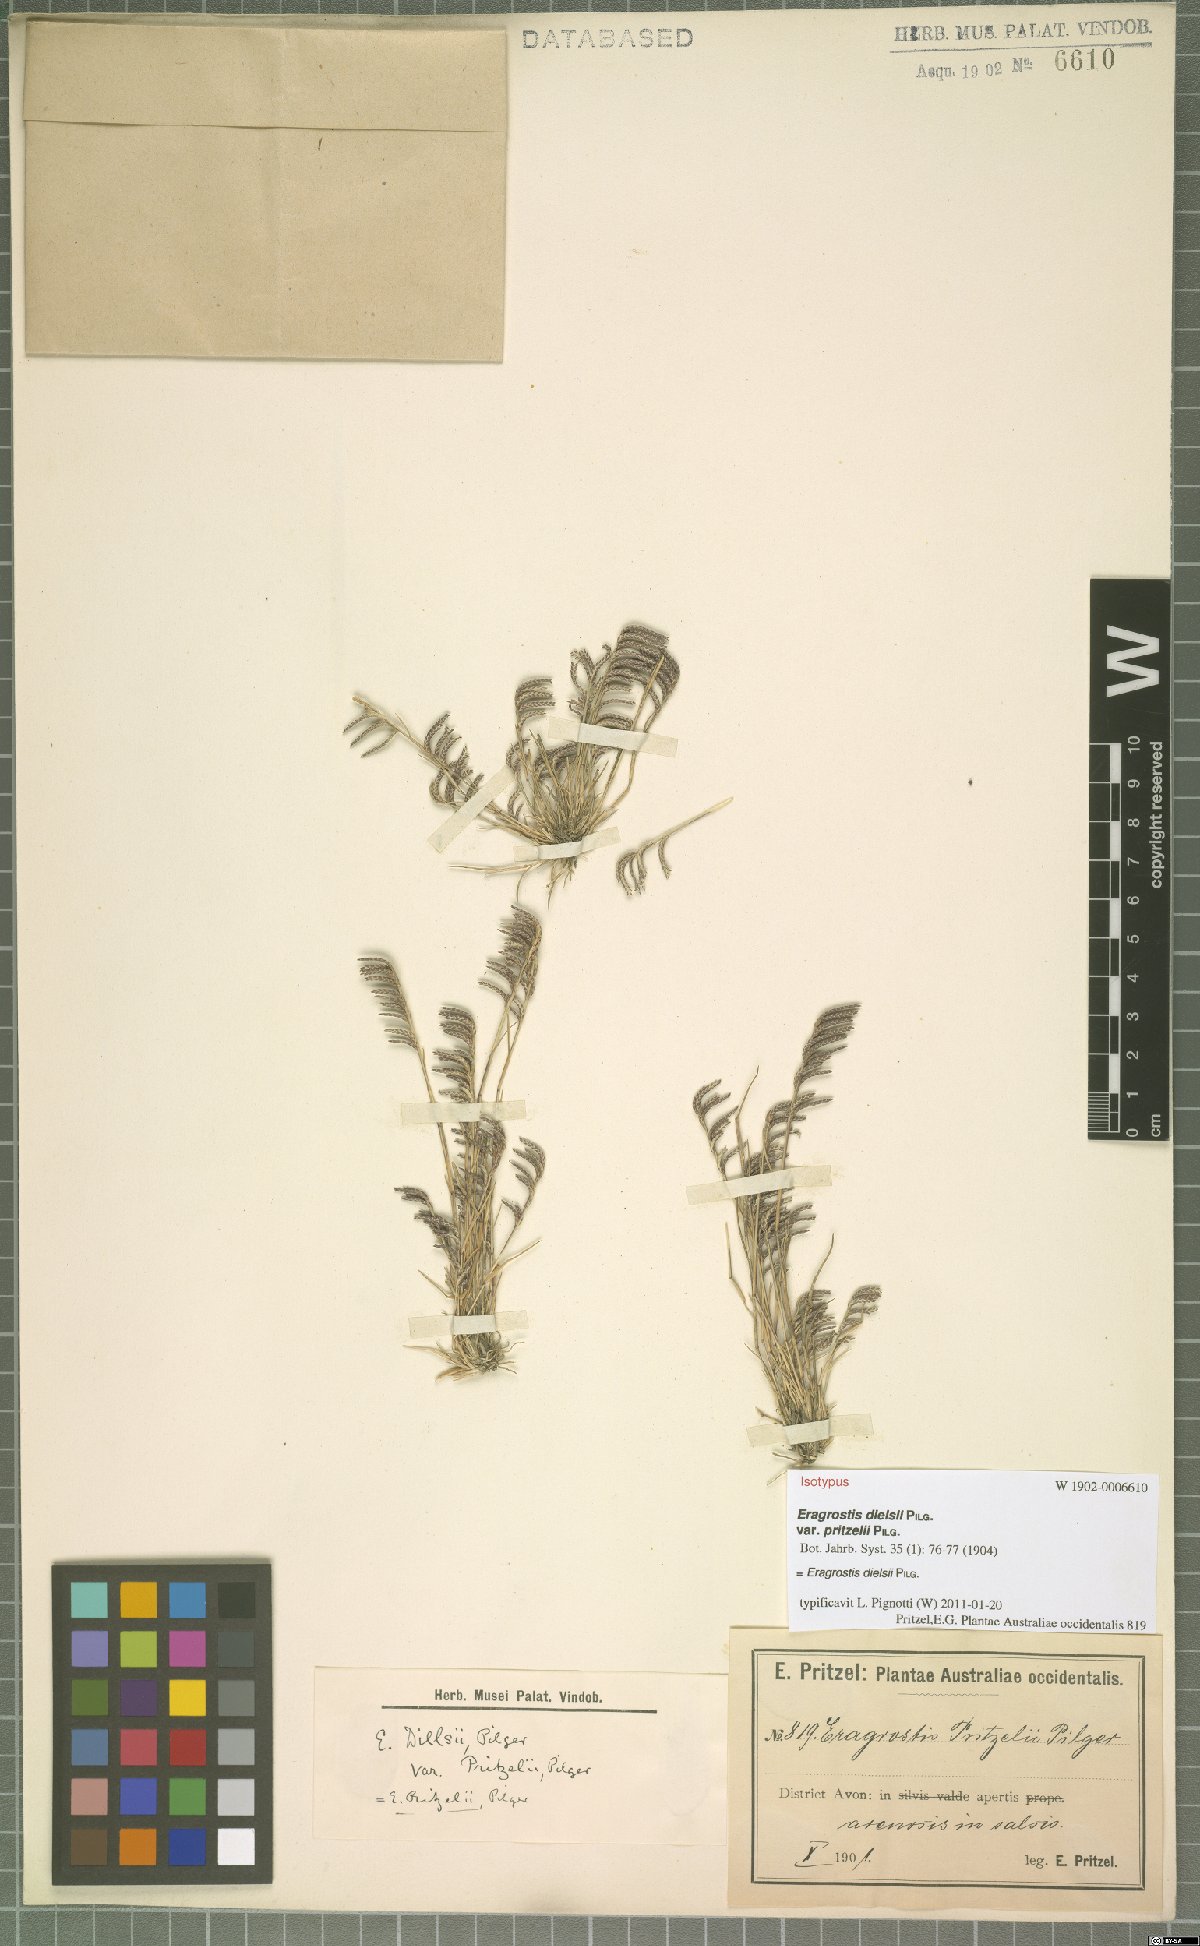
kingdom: Plantae
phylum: Tracheophyta
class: Liliopsida
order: Poales
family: Poaceae
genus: Eragrostis
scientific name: Eragrostis dielsii
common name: Lovegrass
